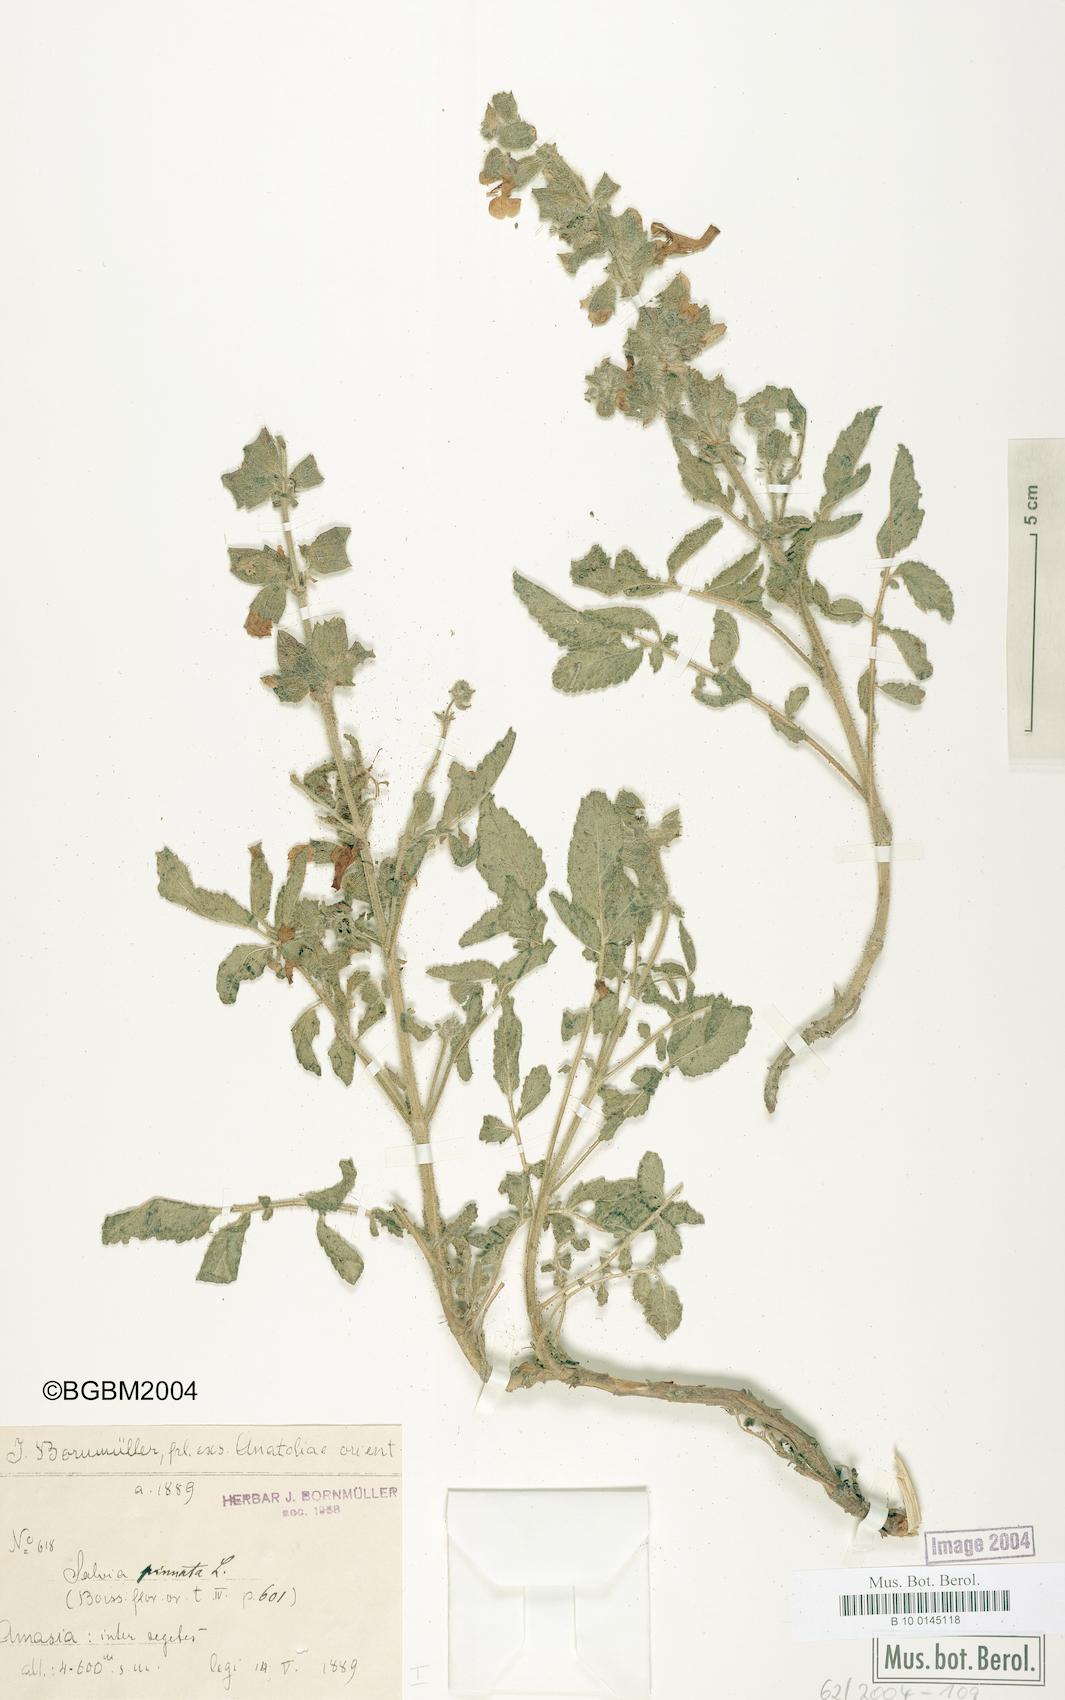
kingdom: Plantae
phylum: Tracheophyta
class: Magnoliopsida
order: Lamiales
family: Lamiaceae
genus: Salvia
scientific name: Salvia pinnata
